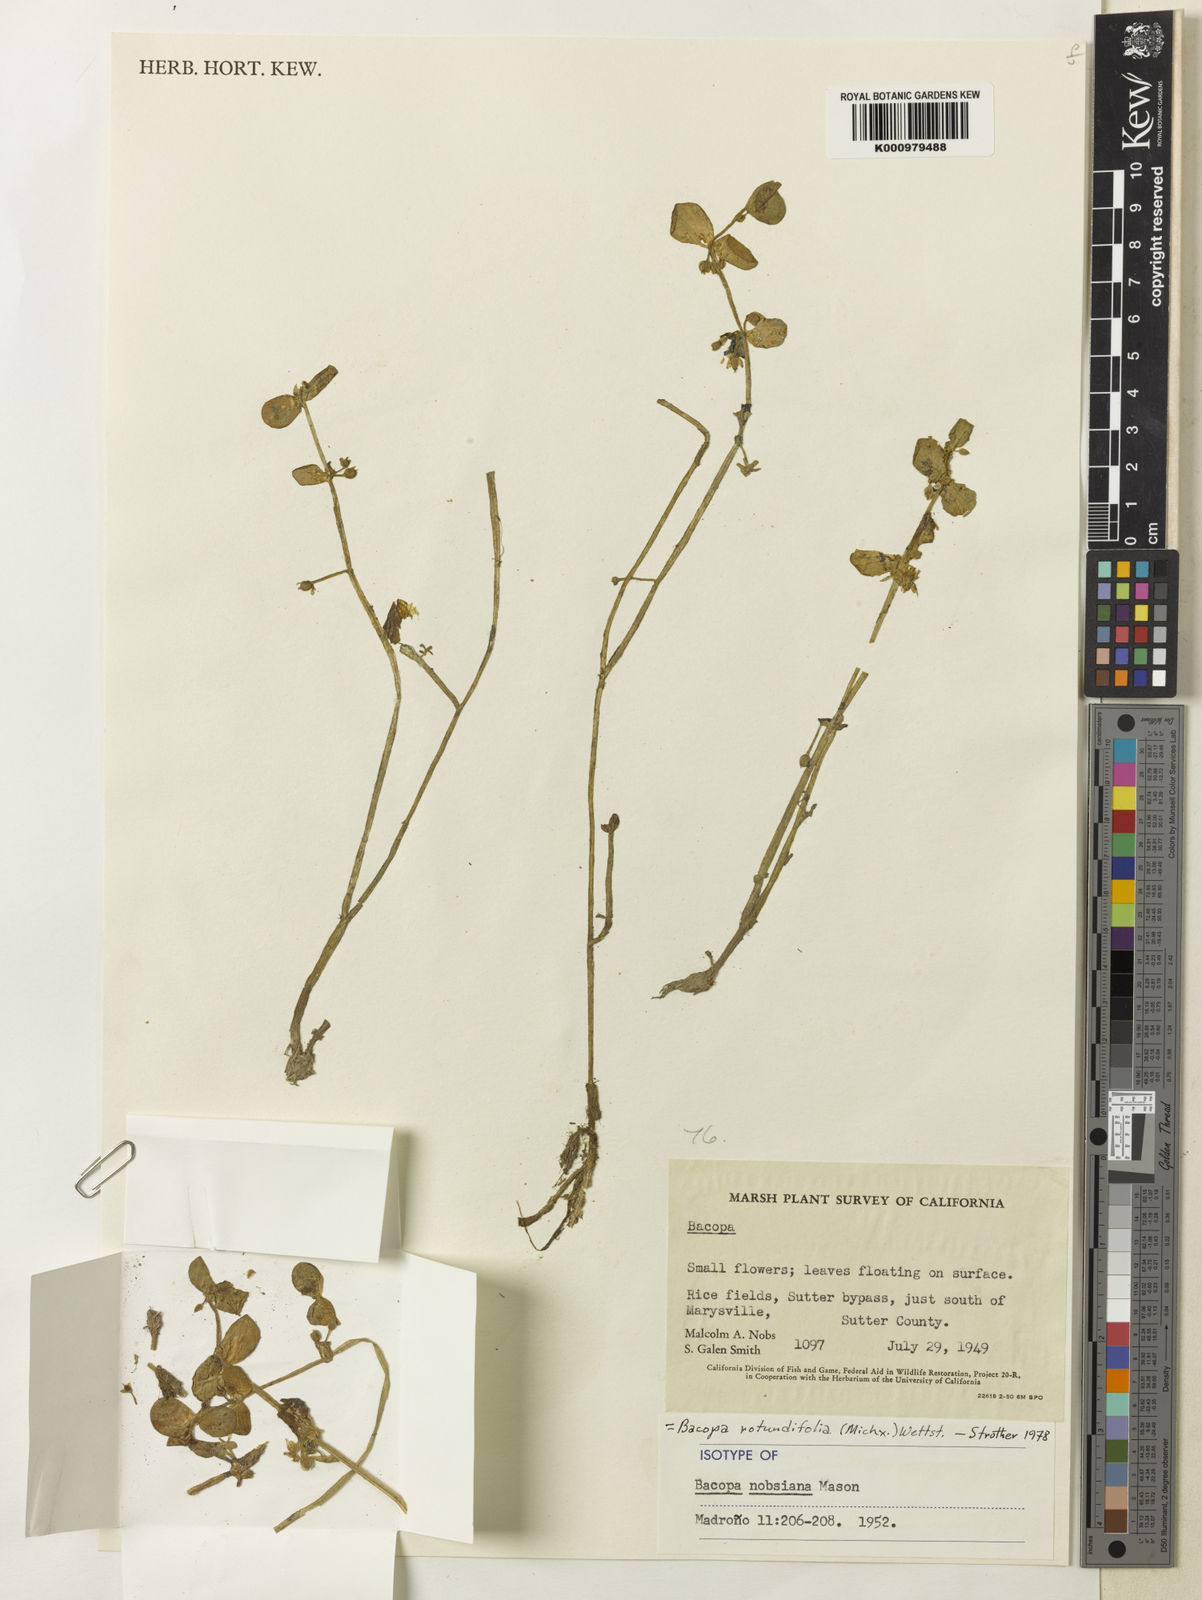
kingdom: Plantae
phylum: Tracheophyta
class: Magnoliopsida
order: Lamiales
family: Plantaginaceae
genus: Bacopa
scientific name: Bacopa rotundifolia
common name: Disc water hyssop
